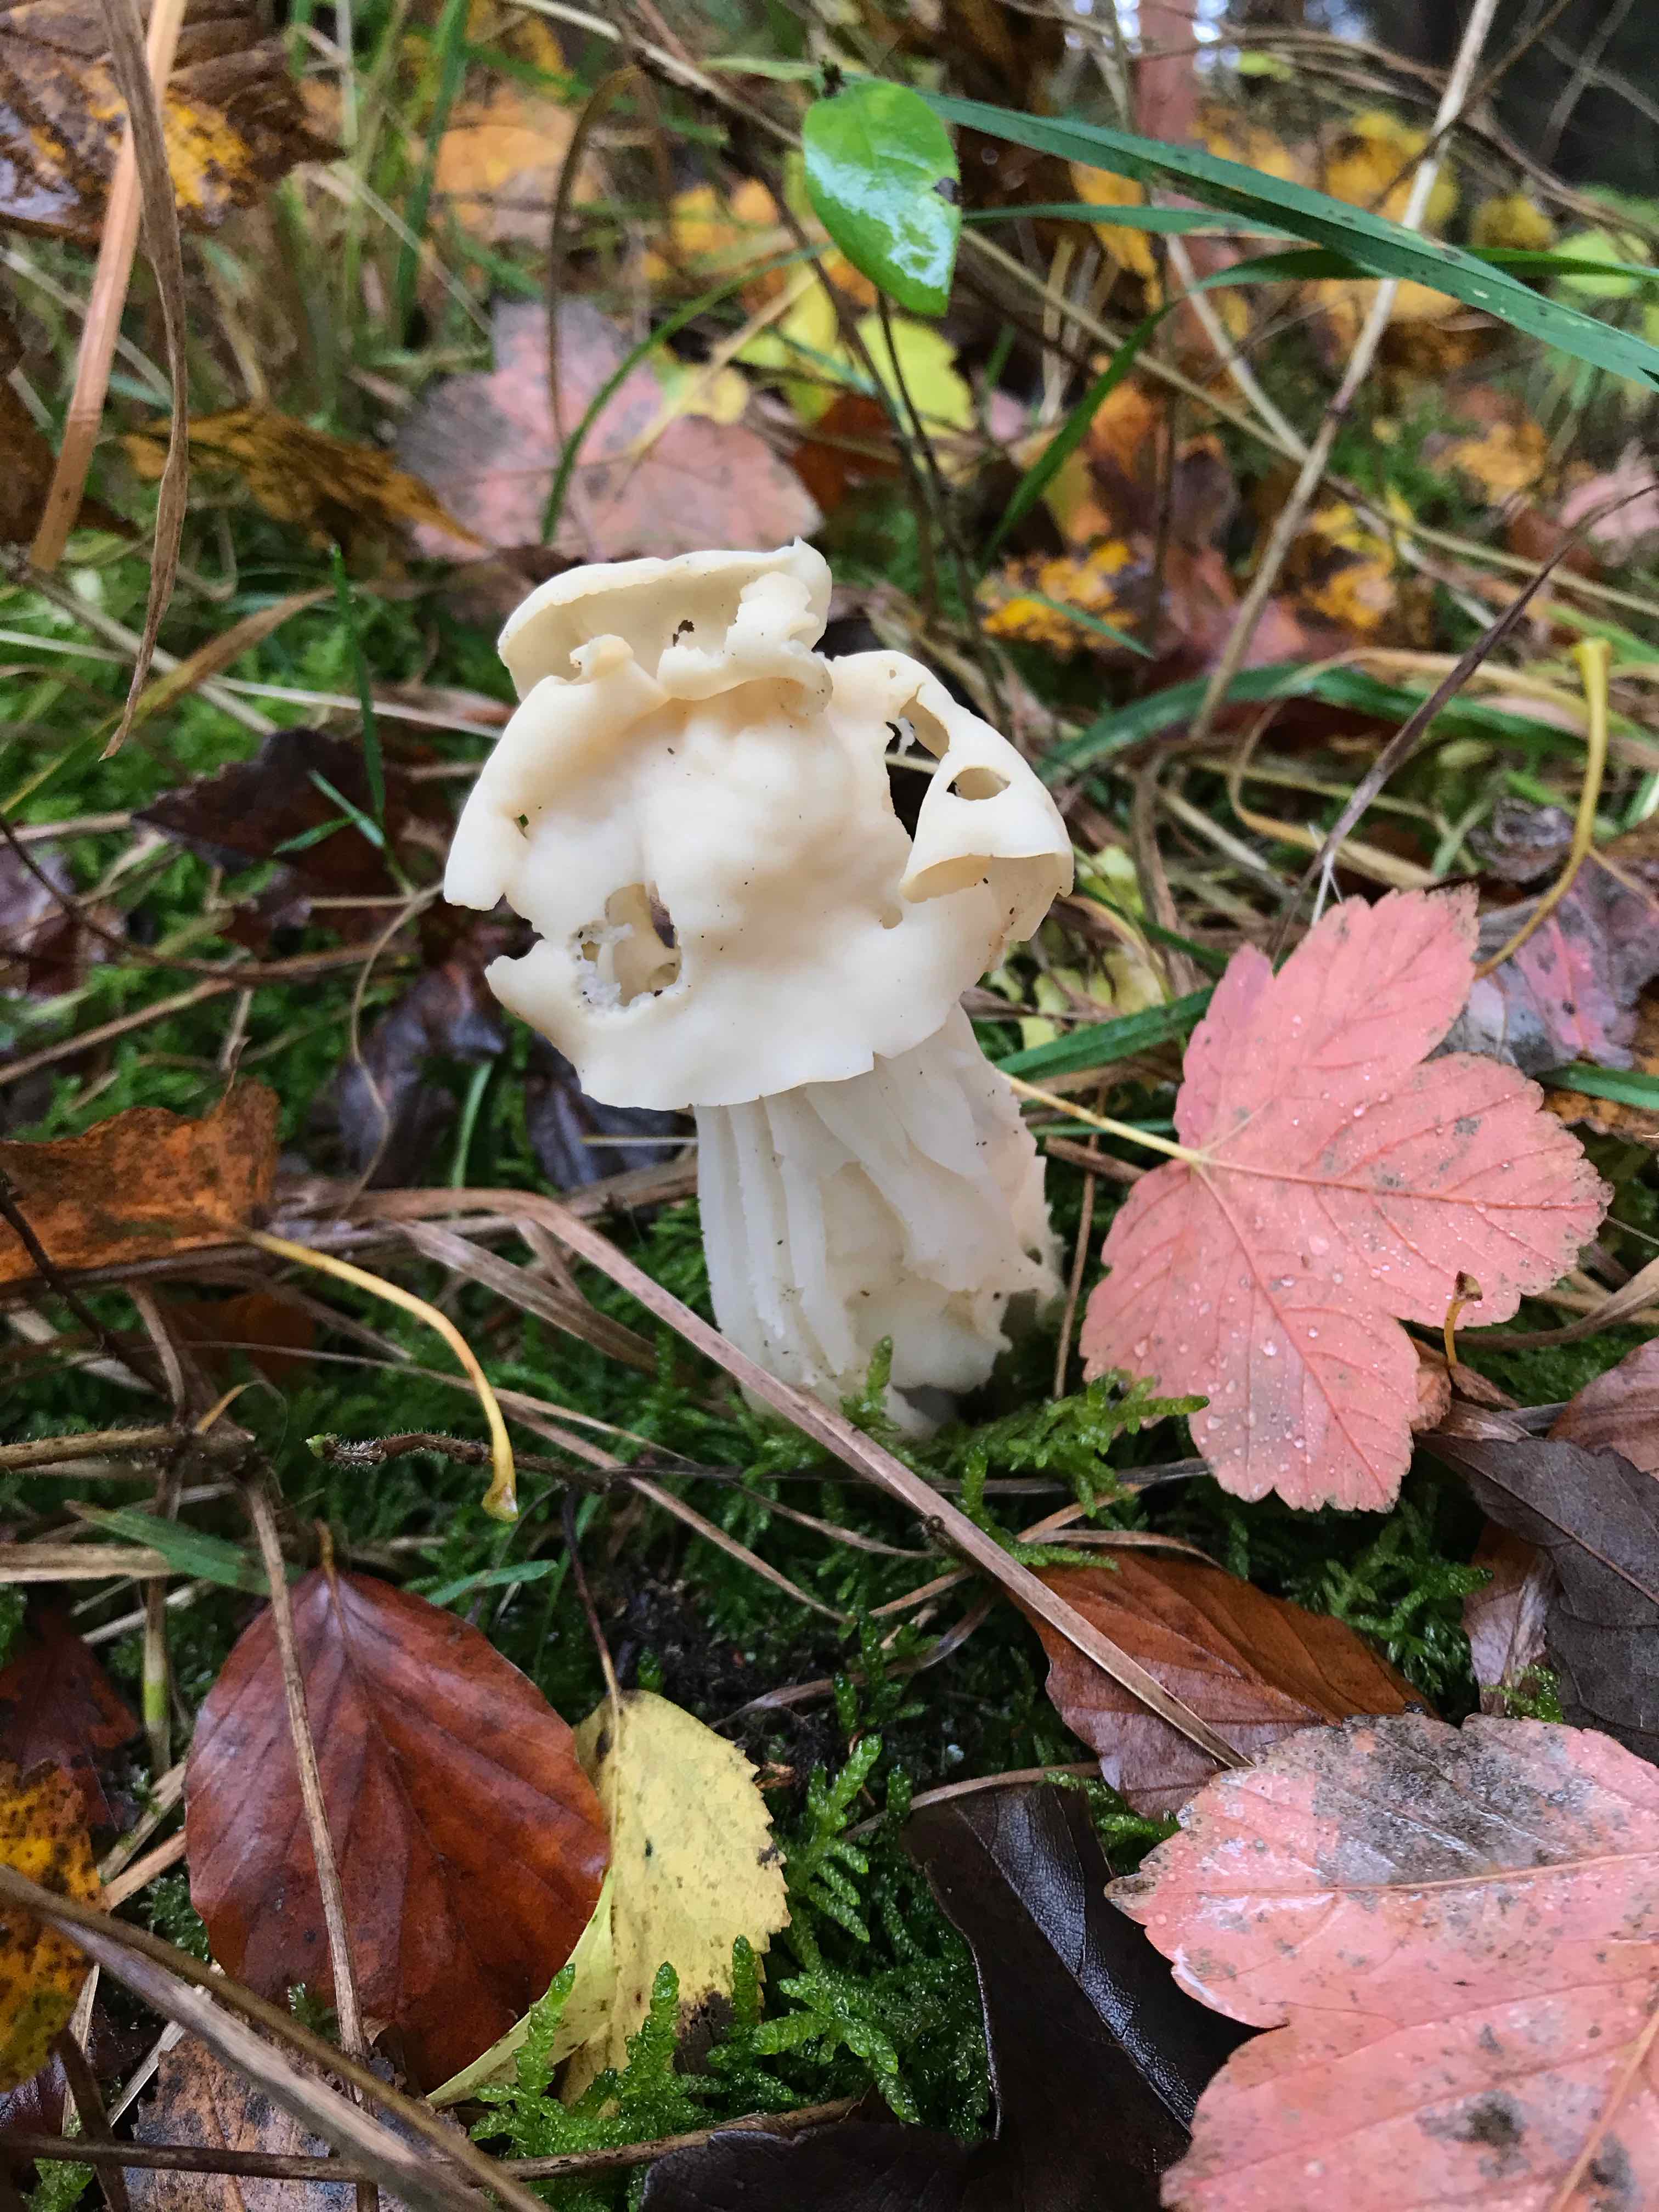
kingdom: Fungi
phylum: Ascomycota
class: Pezizomycetes
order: Pezizales
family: Helvellaceae
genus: Helvella
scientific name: Helvella crispa
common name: kruset foldhat
